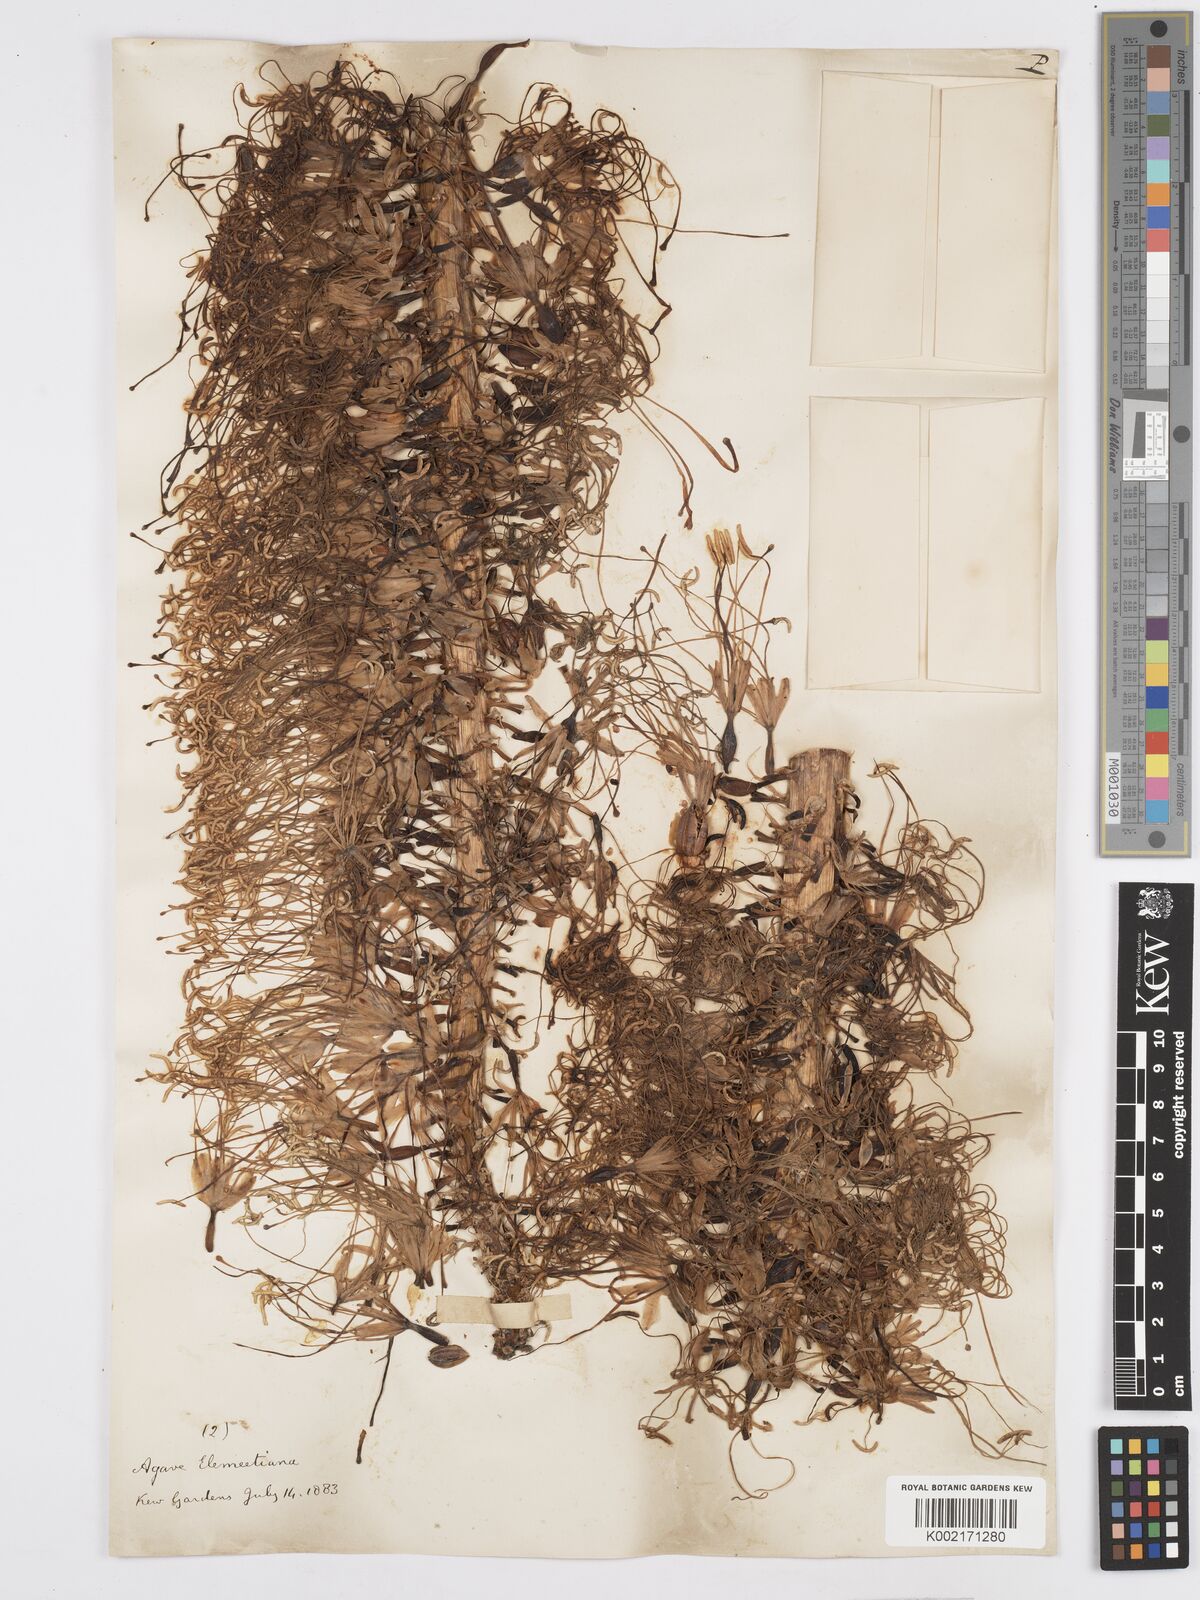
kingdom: Plantae
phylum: Tracheophyta
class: Liliopsida
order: Asparagales
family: Asparagaceae
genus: Agave
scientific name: Agave ellemeetiana
